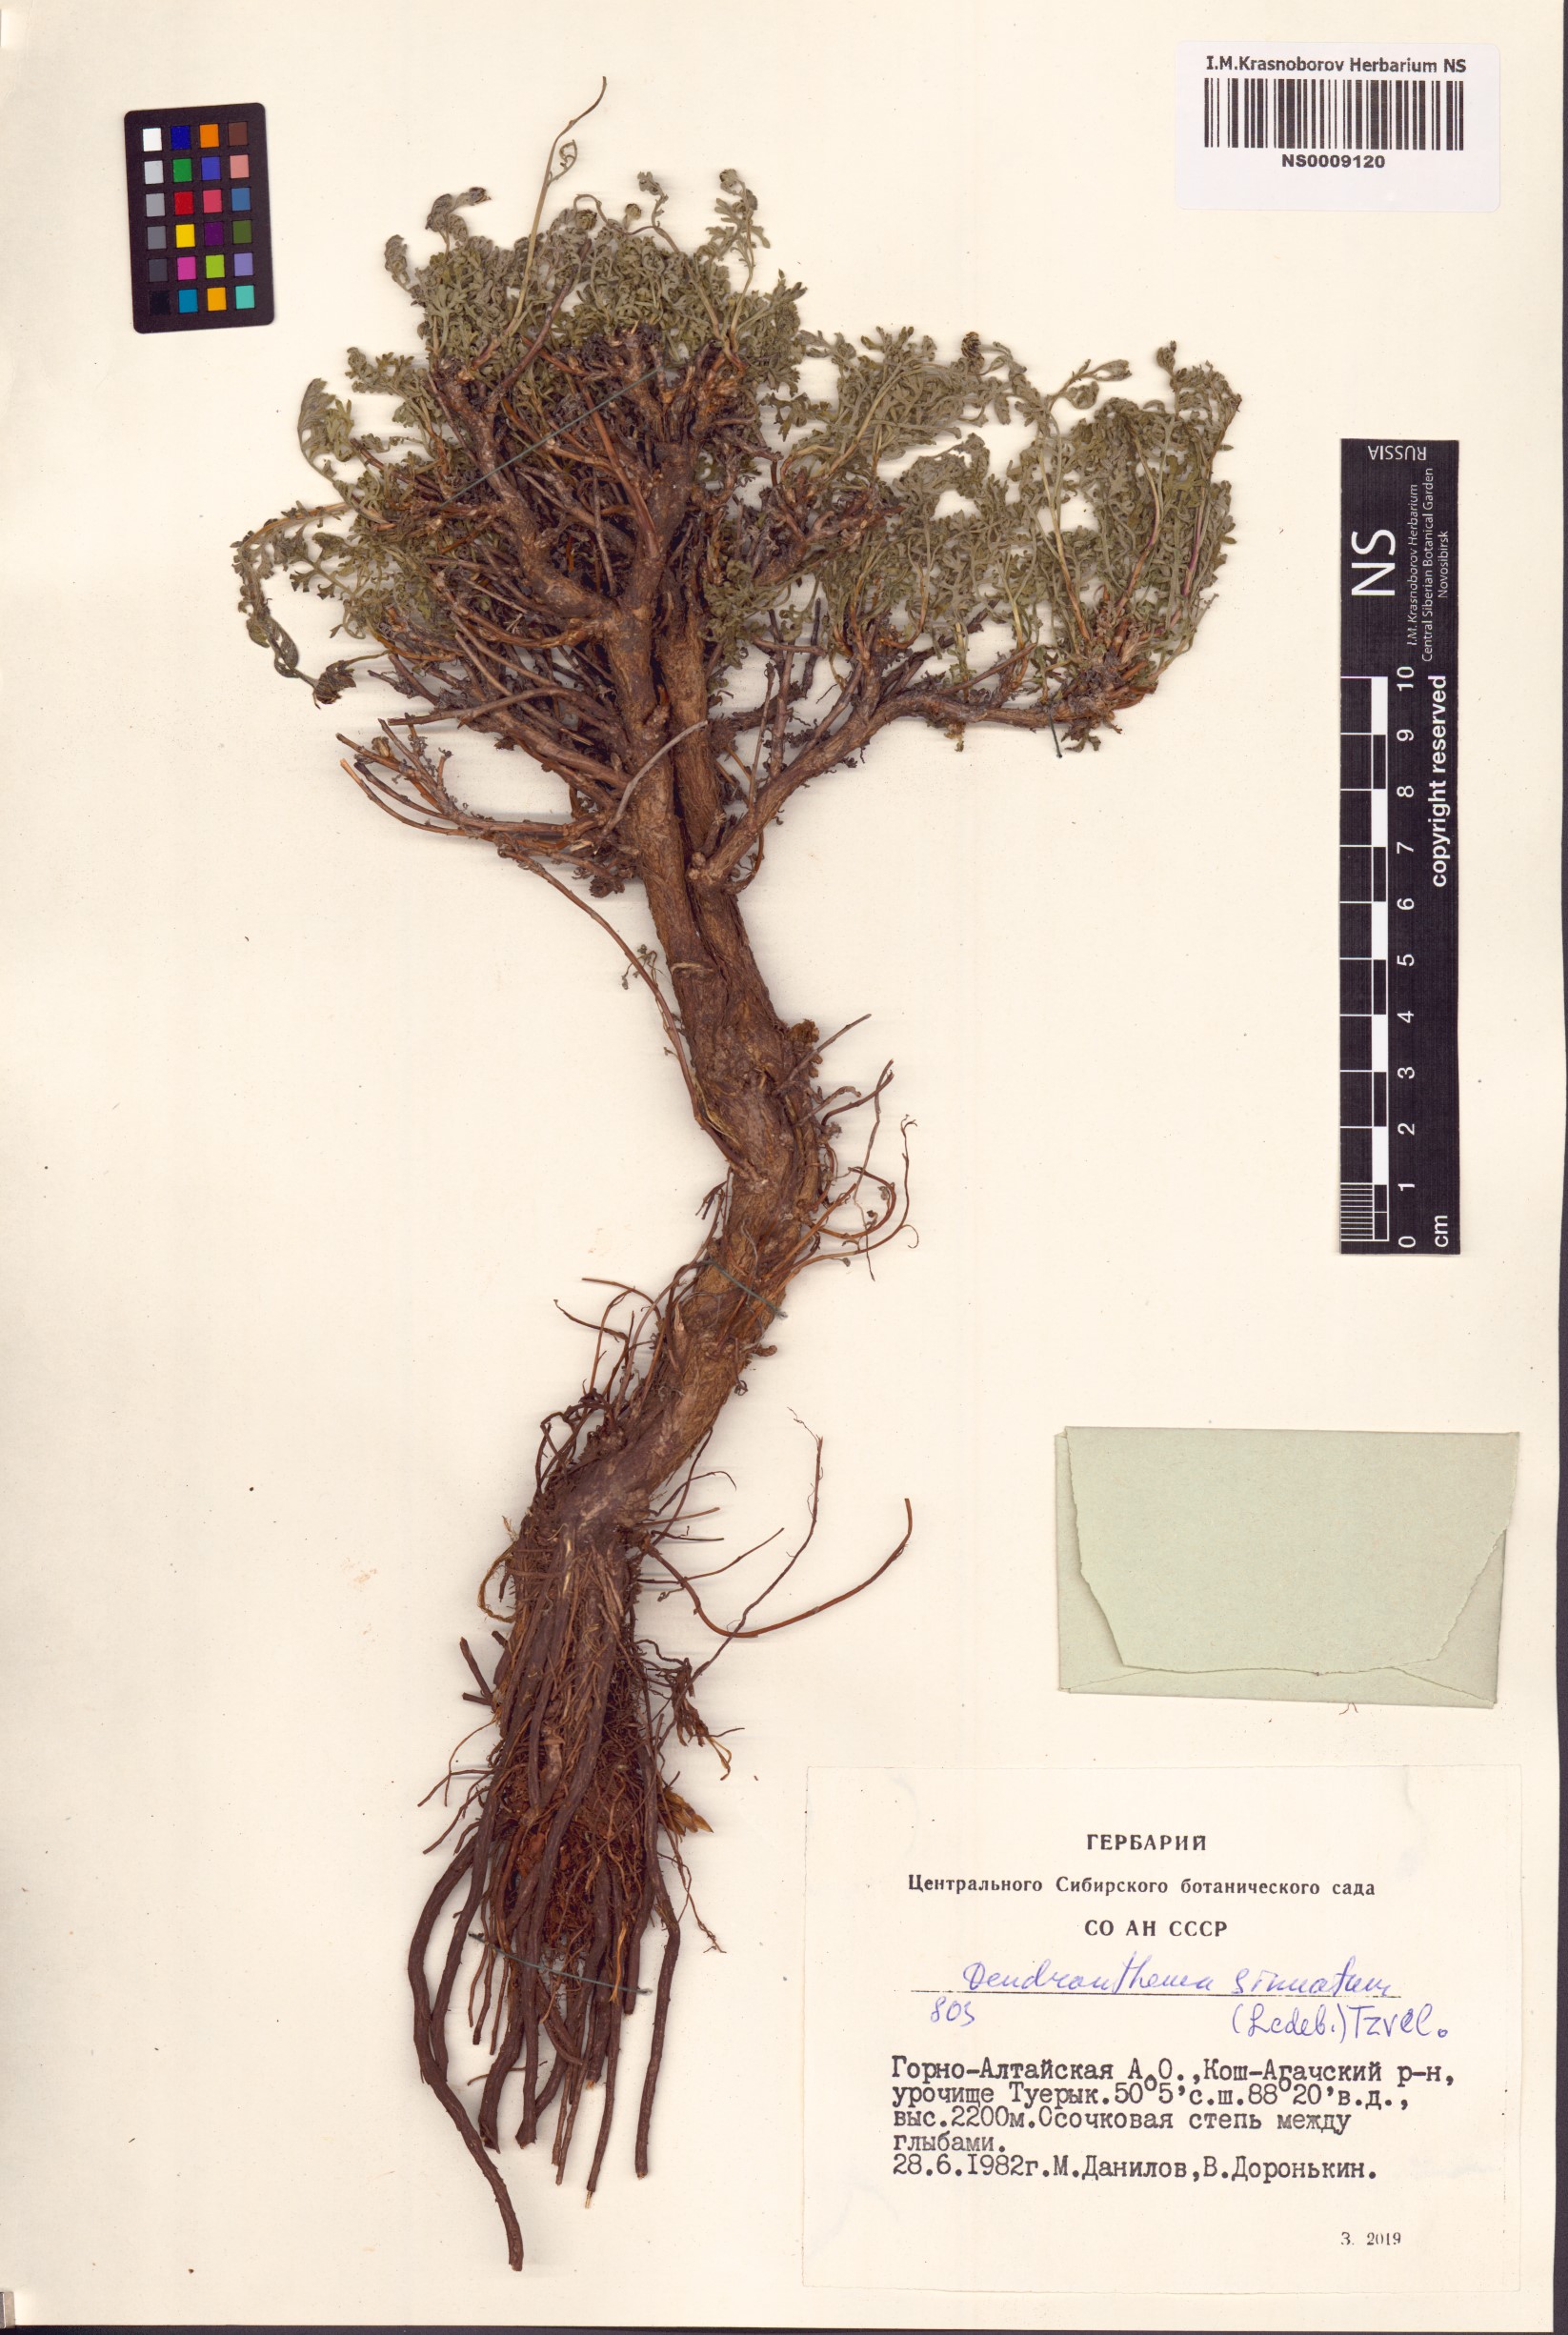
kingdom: Plantae
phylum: Tracheophyta
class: Magnoliopsida
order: Asterales
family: Asteraceae
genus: Chrysanthemum
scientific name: Chrysanthemum sinuatum
